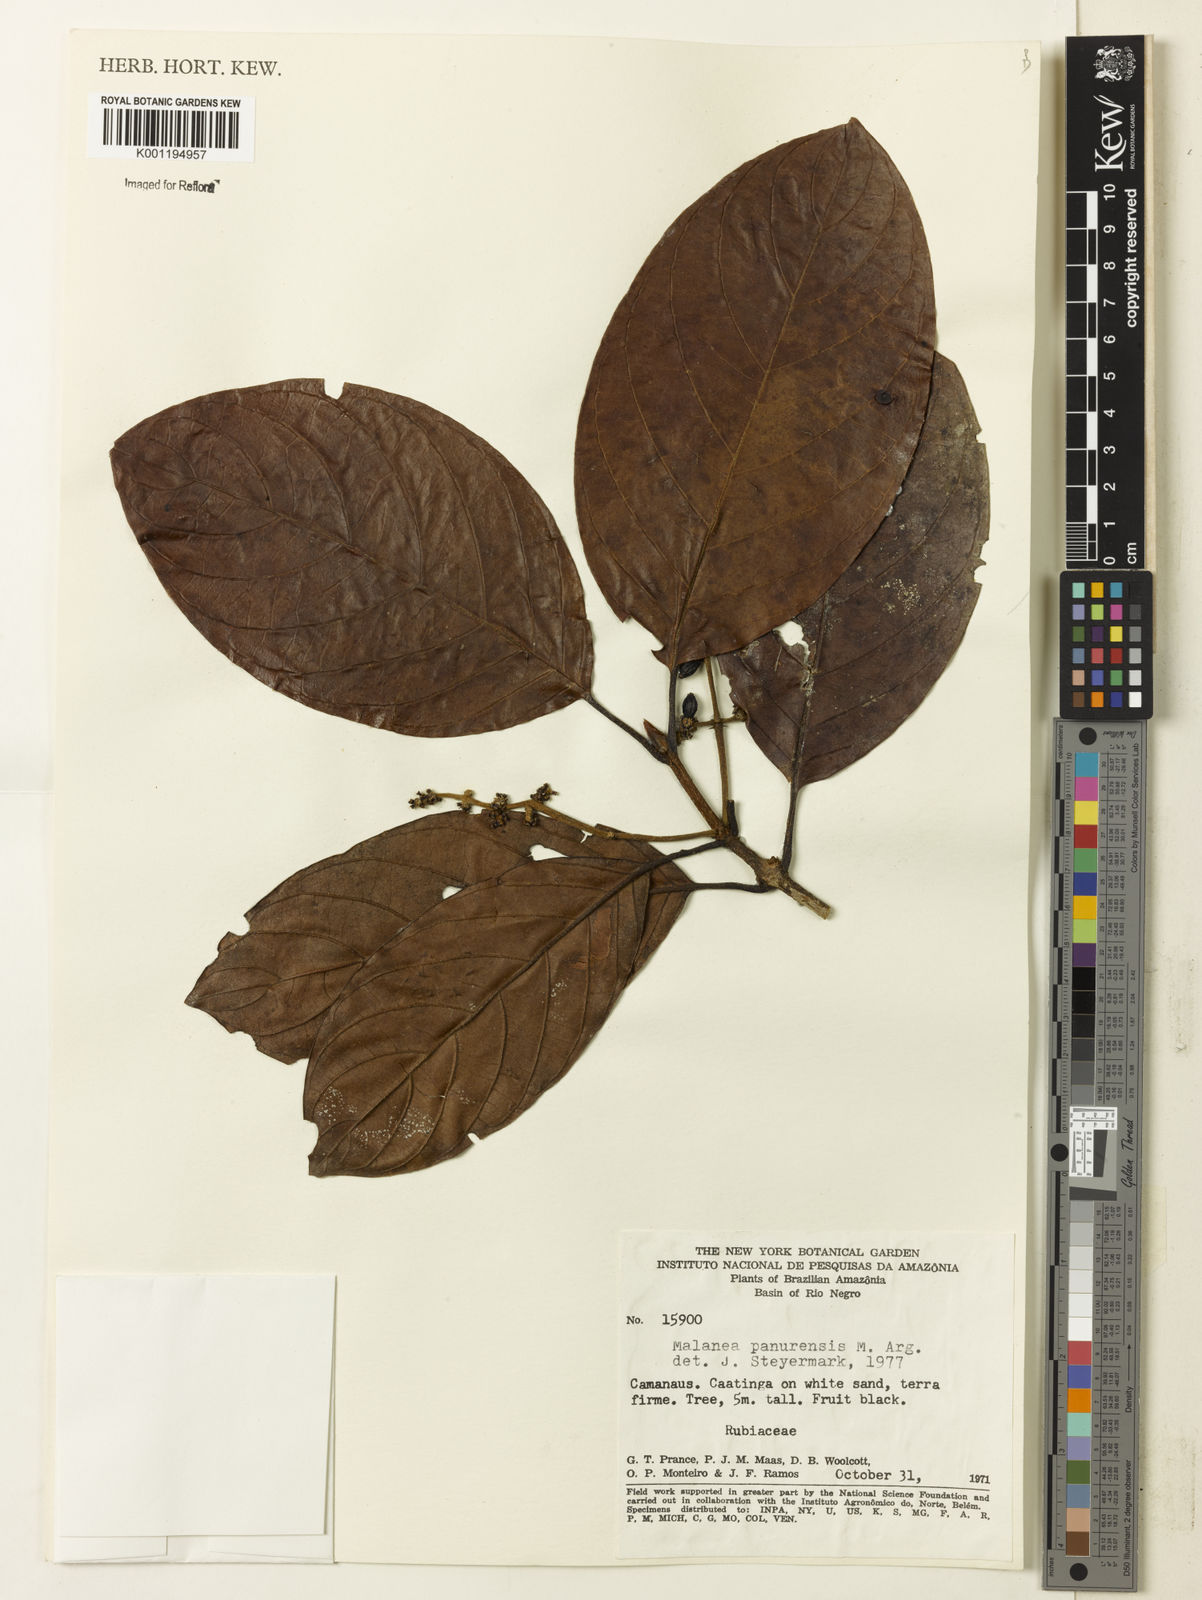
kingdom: Plantae
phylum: Tracheophyta
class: Magnoliopsida
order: Gentianales
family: Rubiaceae
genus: Malanea
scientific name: Malanea
